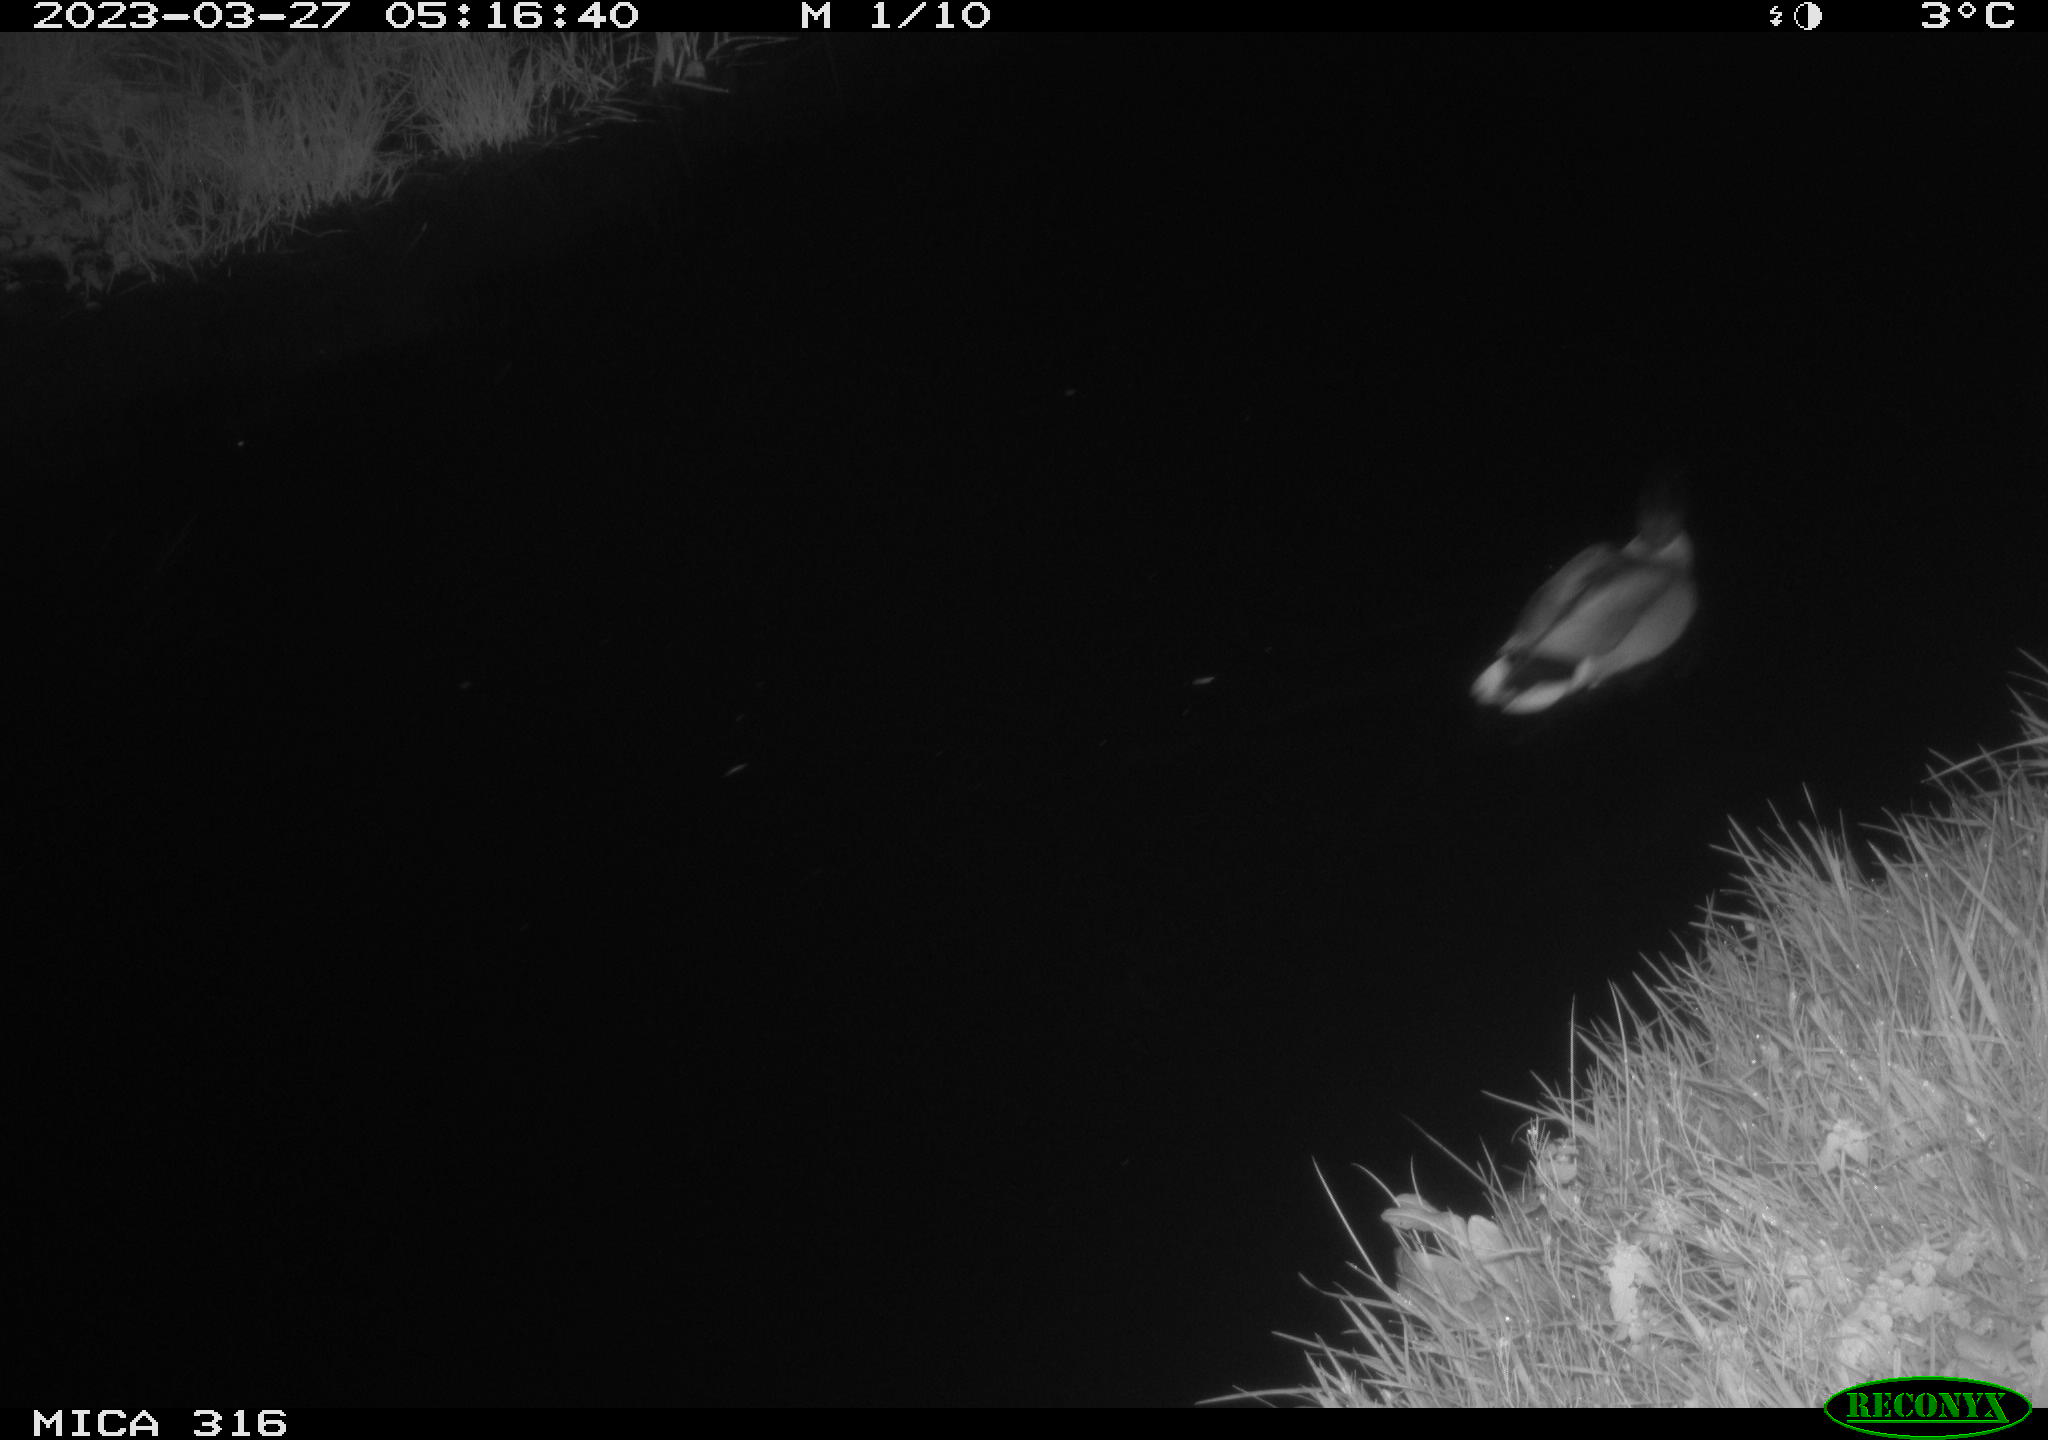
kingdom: Animalia
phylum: Chordata
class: Aves
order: Anseriformes
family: Anatidae
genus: Anas
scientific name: Anas
